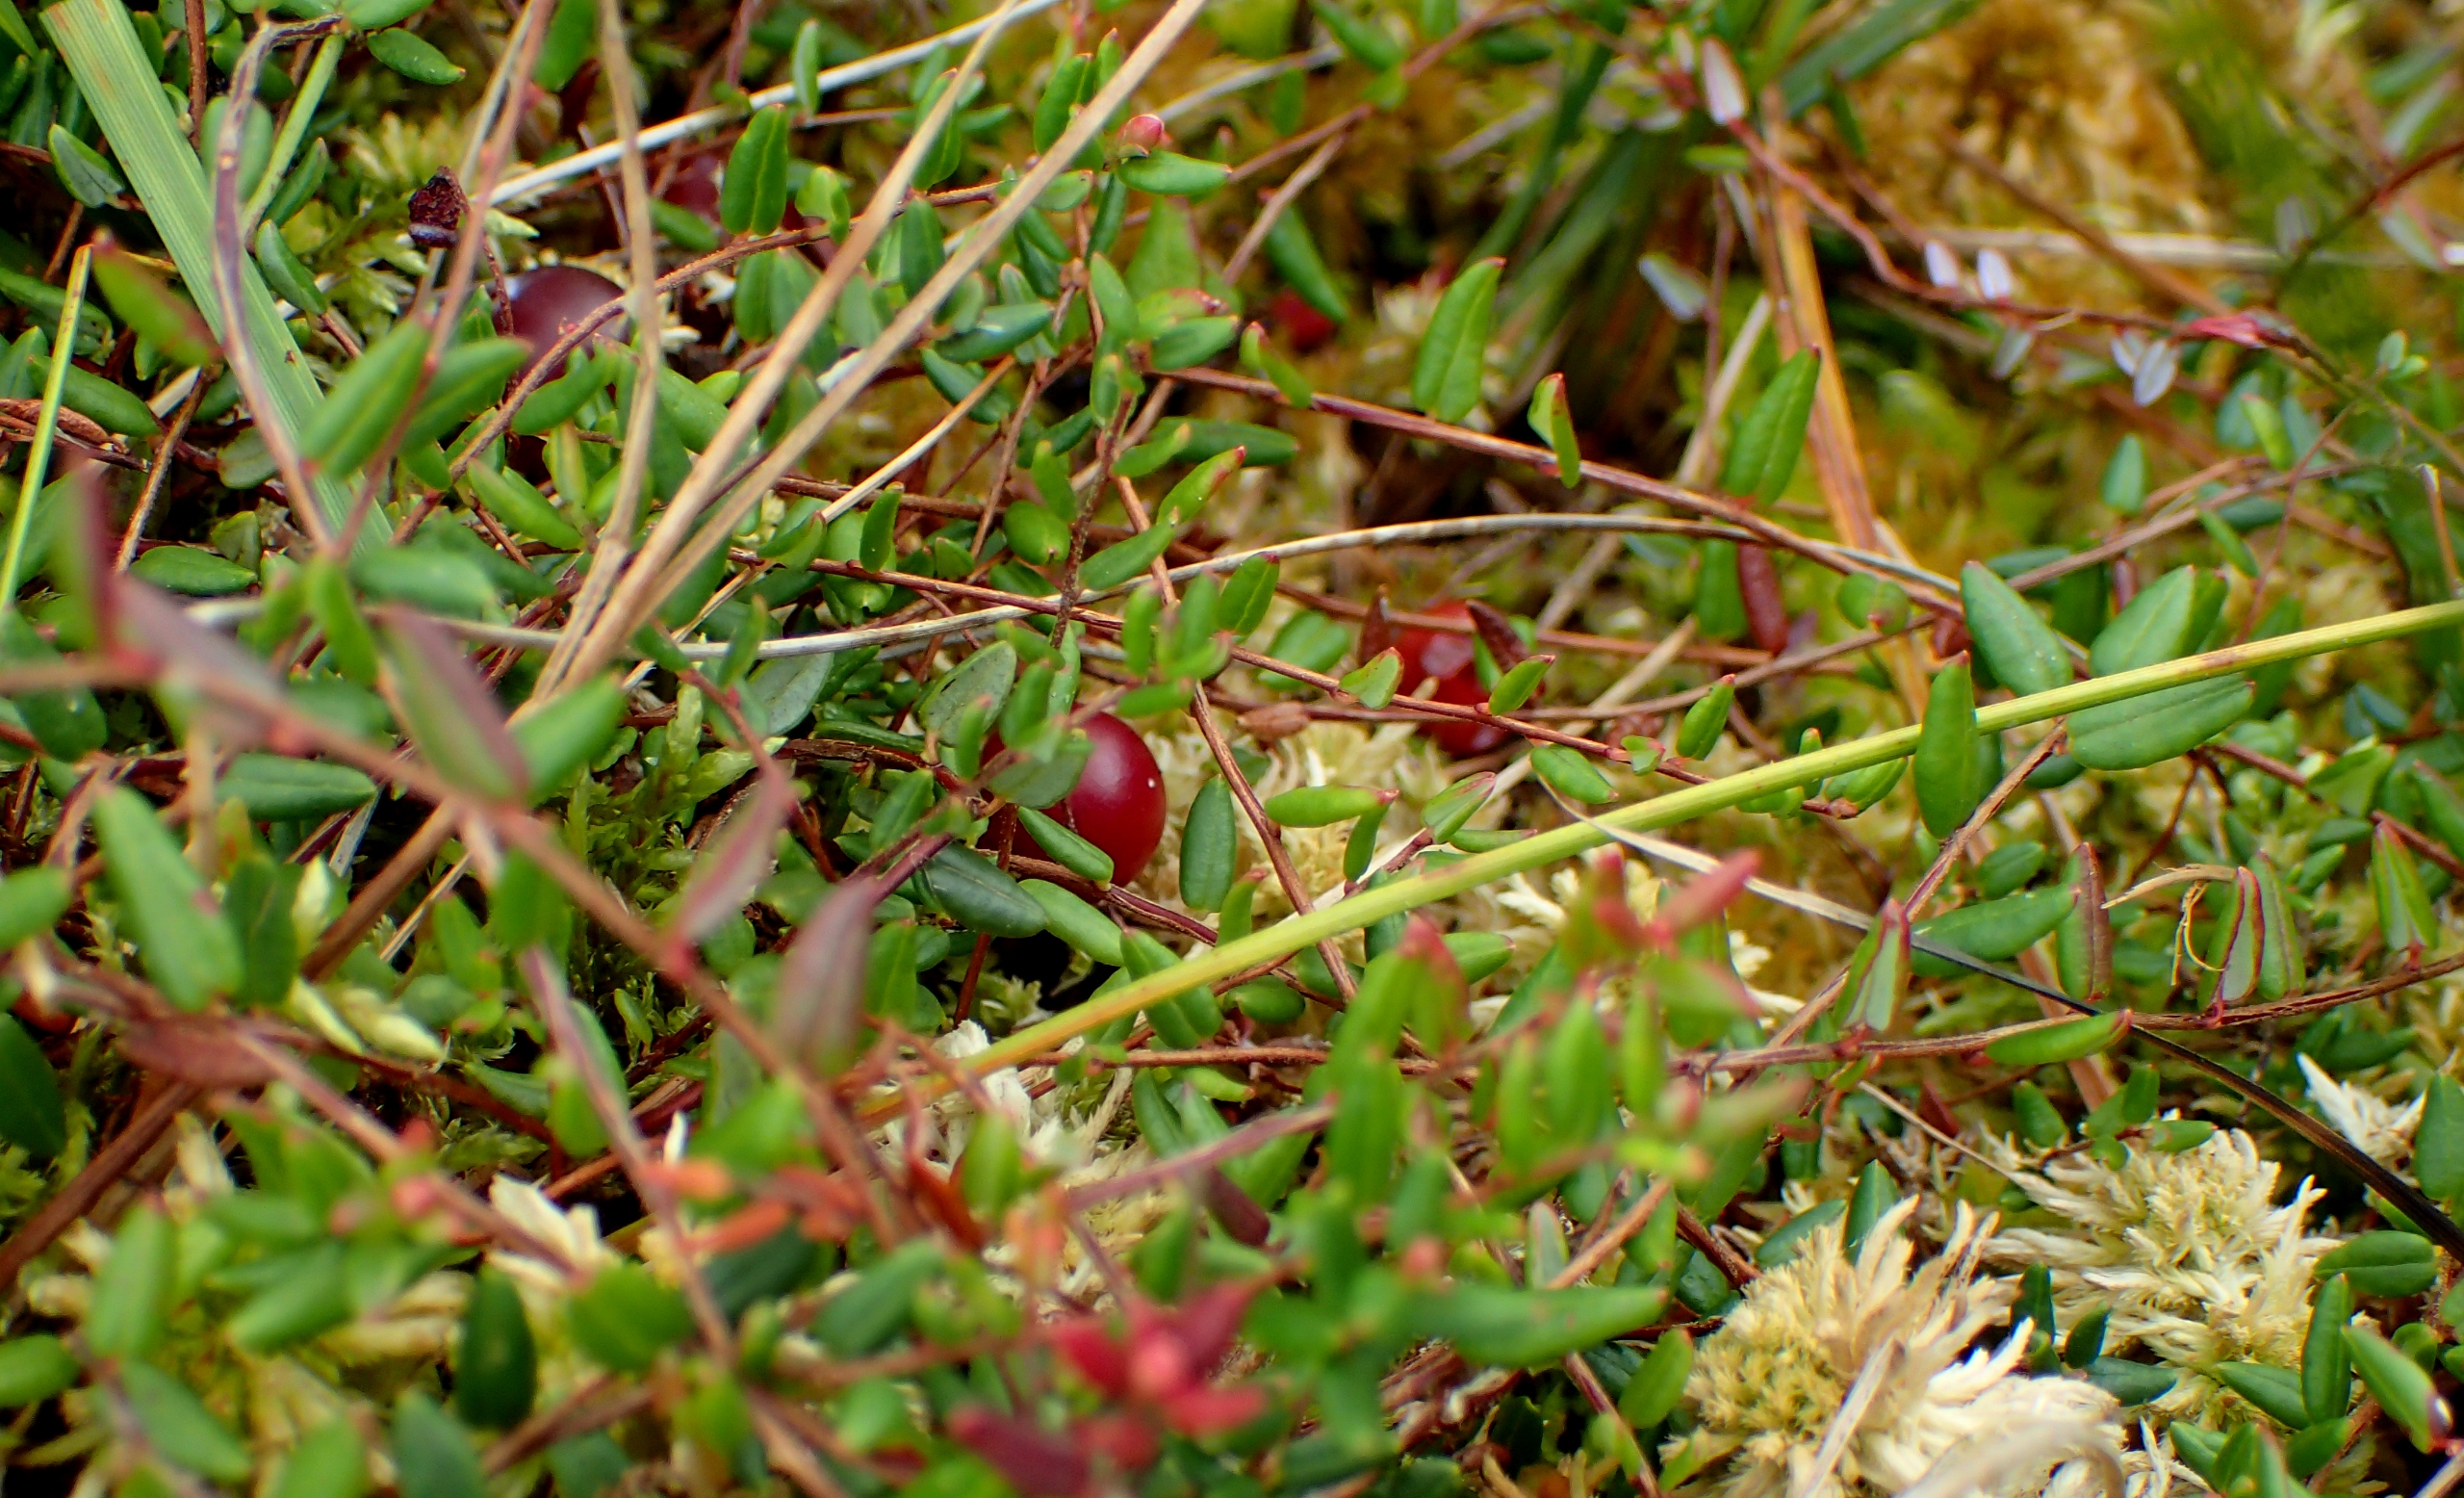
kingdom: Plantae
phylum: Tracheophyta
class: Magnoliopsida
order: Ericales
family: Ericaceae
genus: Vaccinium
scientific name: Vaccinium oxycoccos
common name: Tranebær
